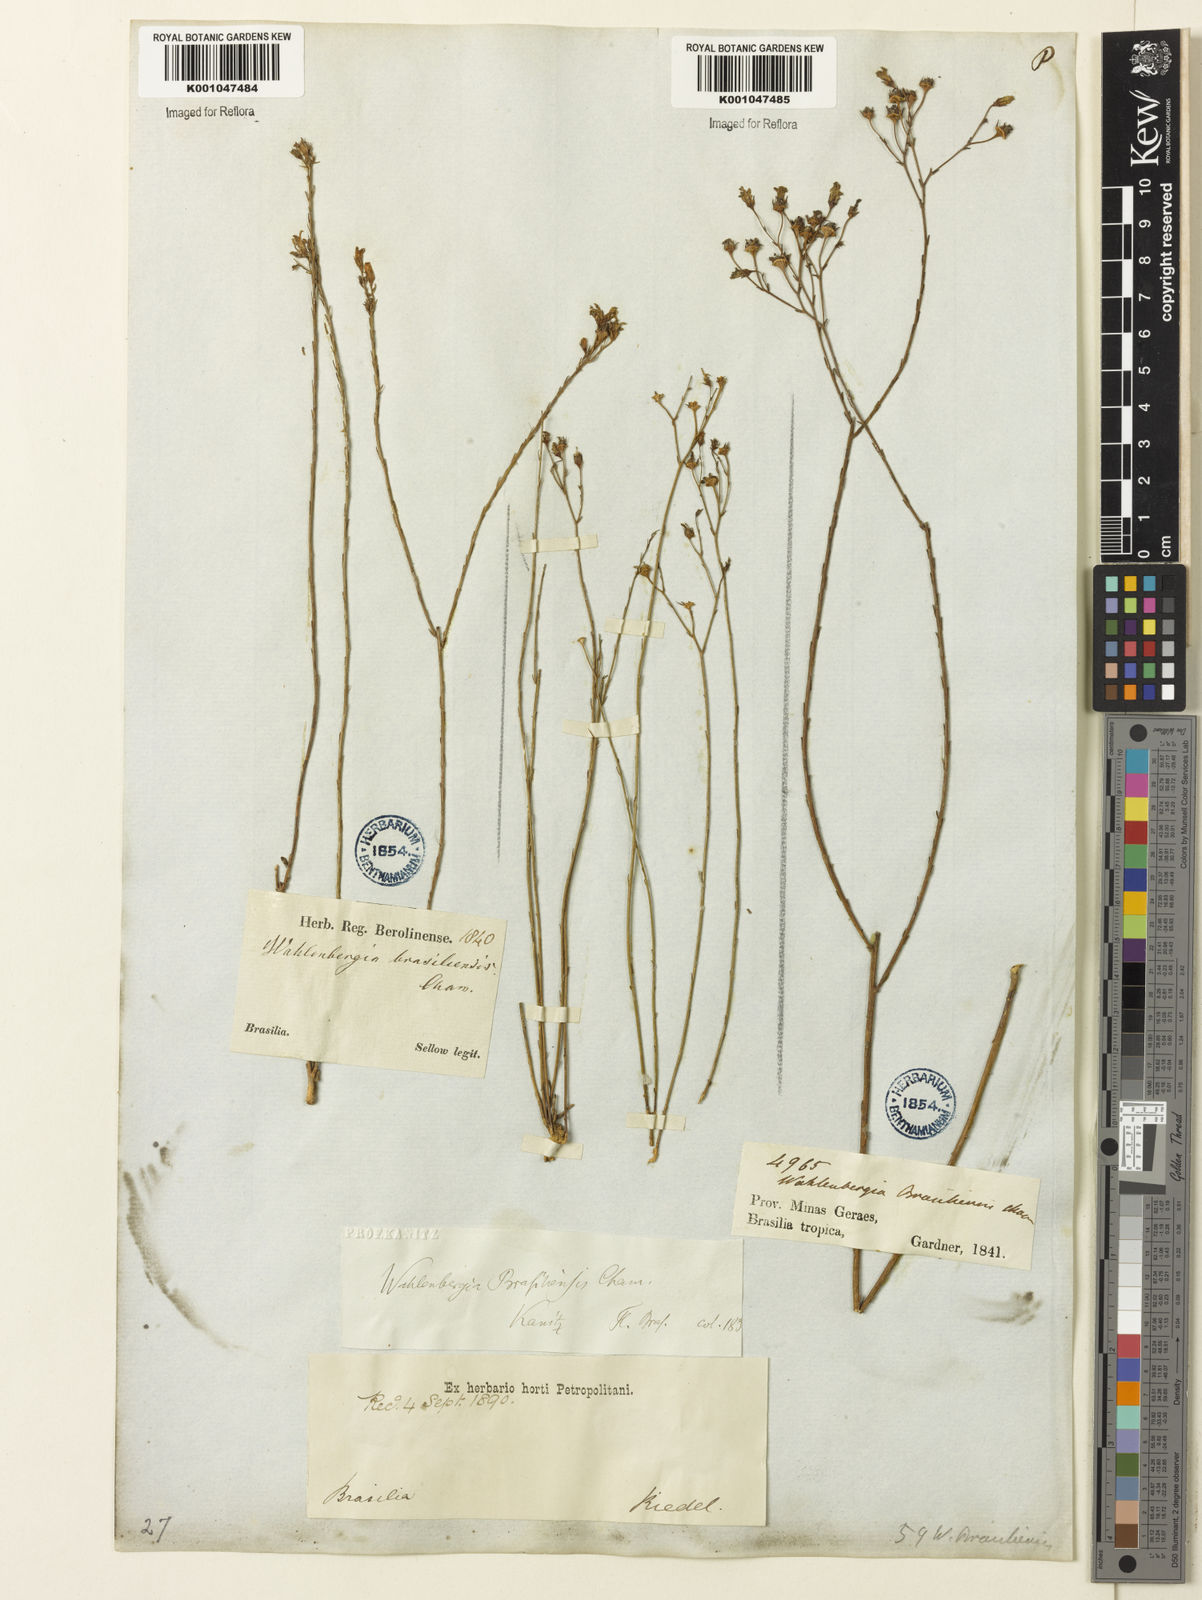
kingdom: Plantae
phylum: Tracheophyta
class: Magnoliopsida
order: Asterales
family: Campanulaceae
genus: Wahlenbergia
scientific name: Wahlenbergia brasiliensis
